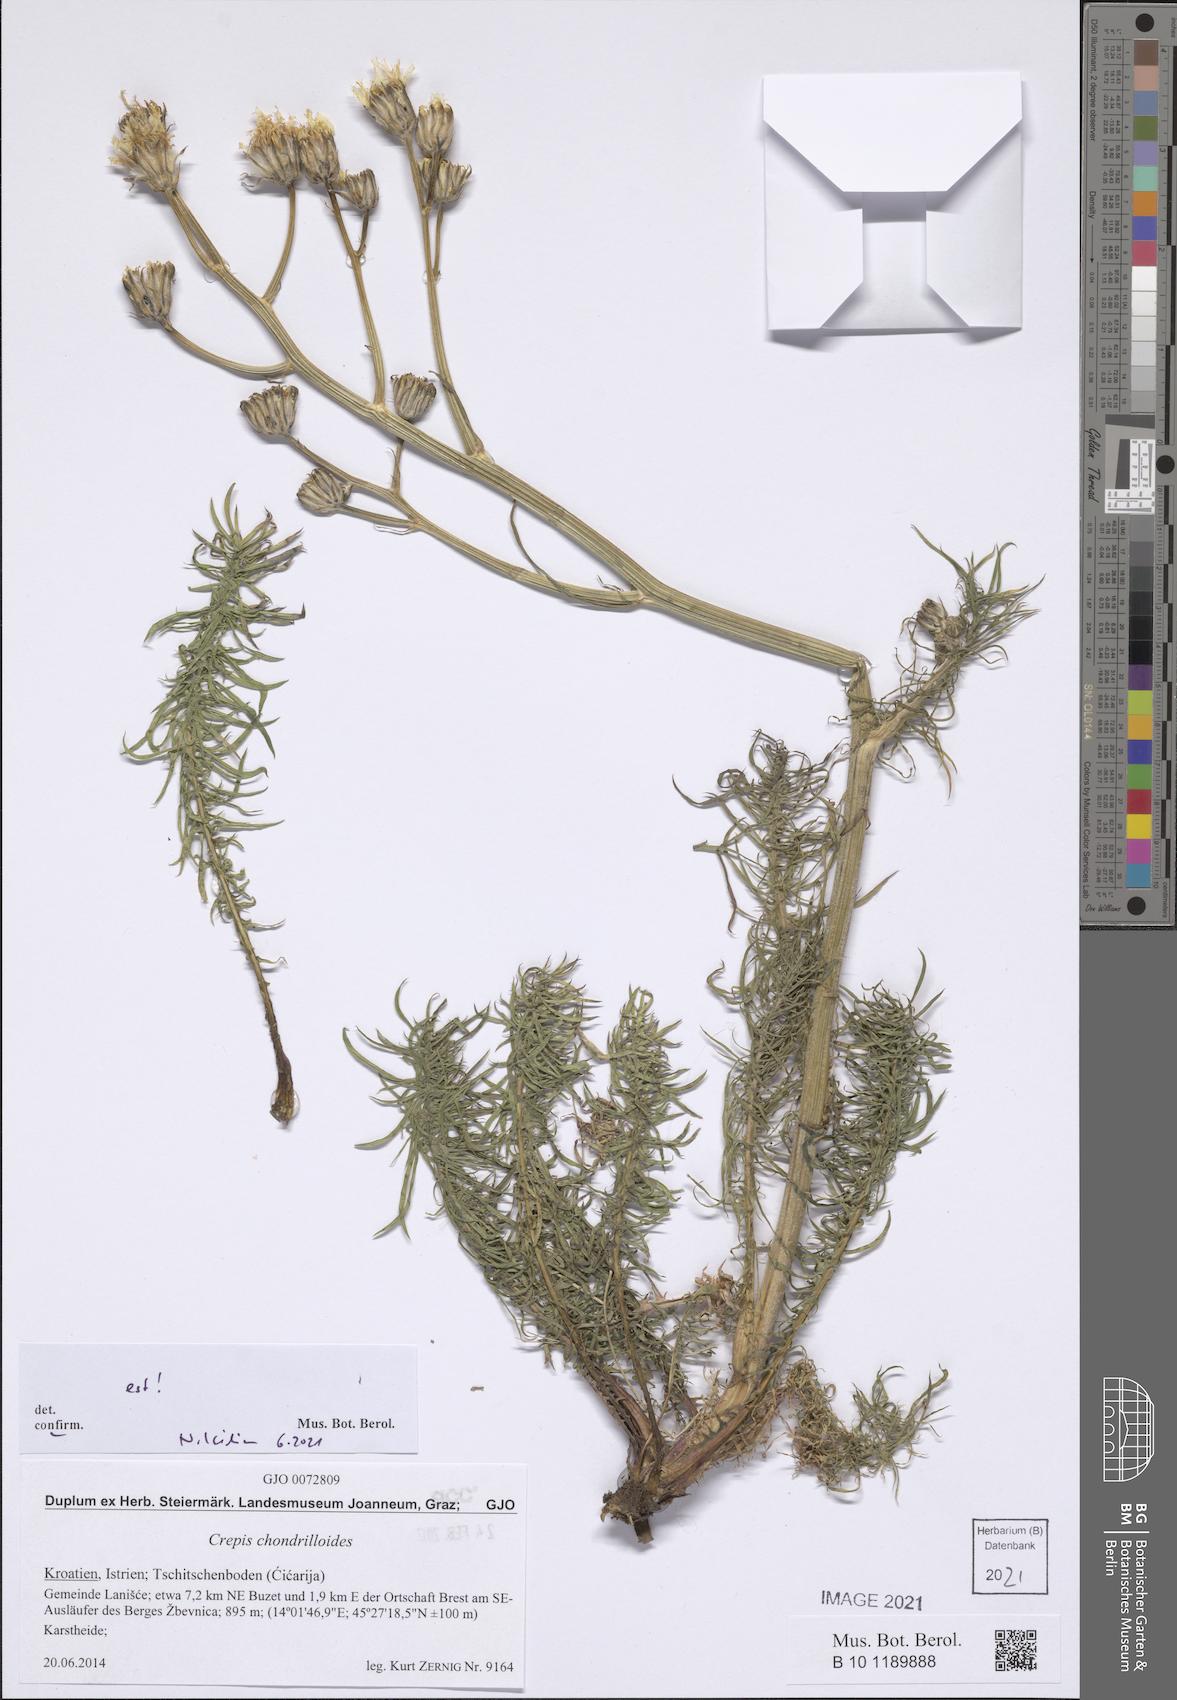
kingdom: Plantae
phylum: Tracheophyta
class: Magnoliopsida
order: Asterales
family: Asteraceae
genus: Crepis
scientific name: Crepis chondrilloides
